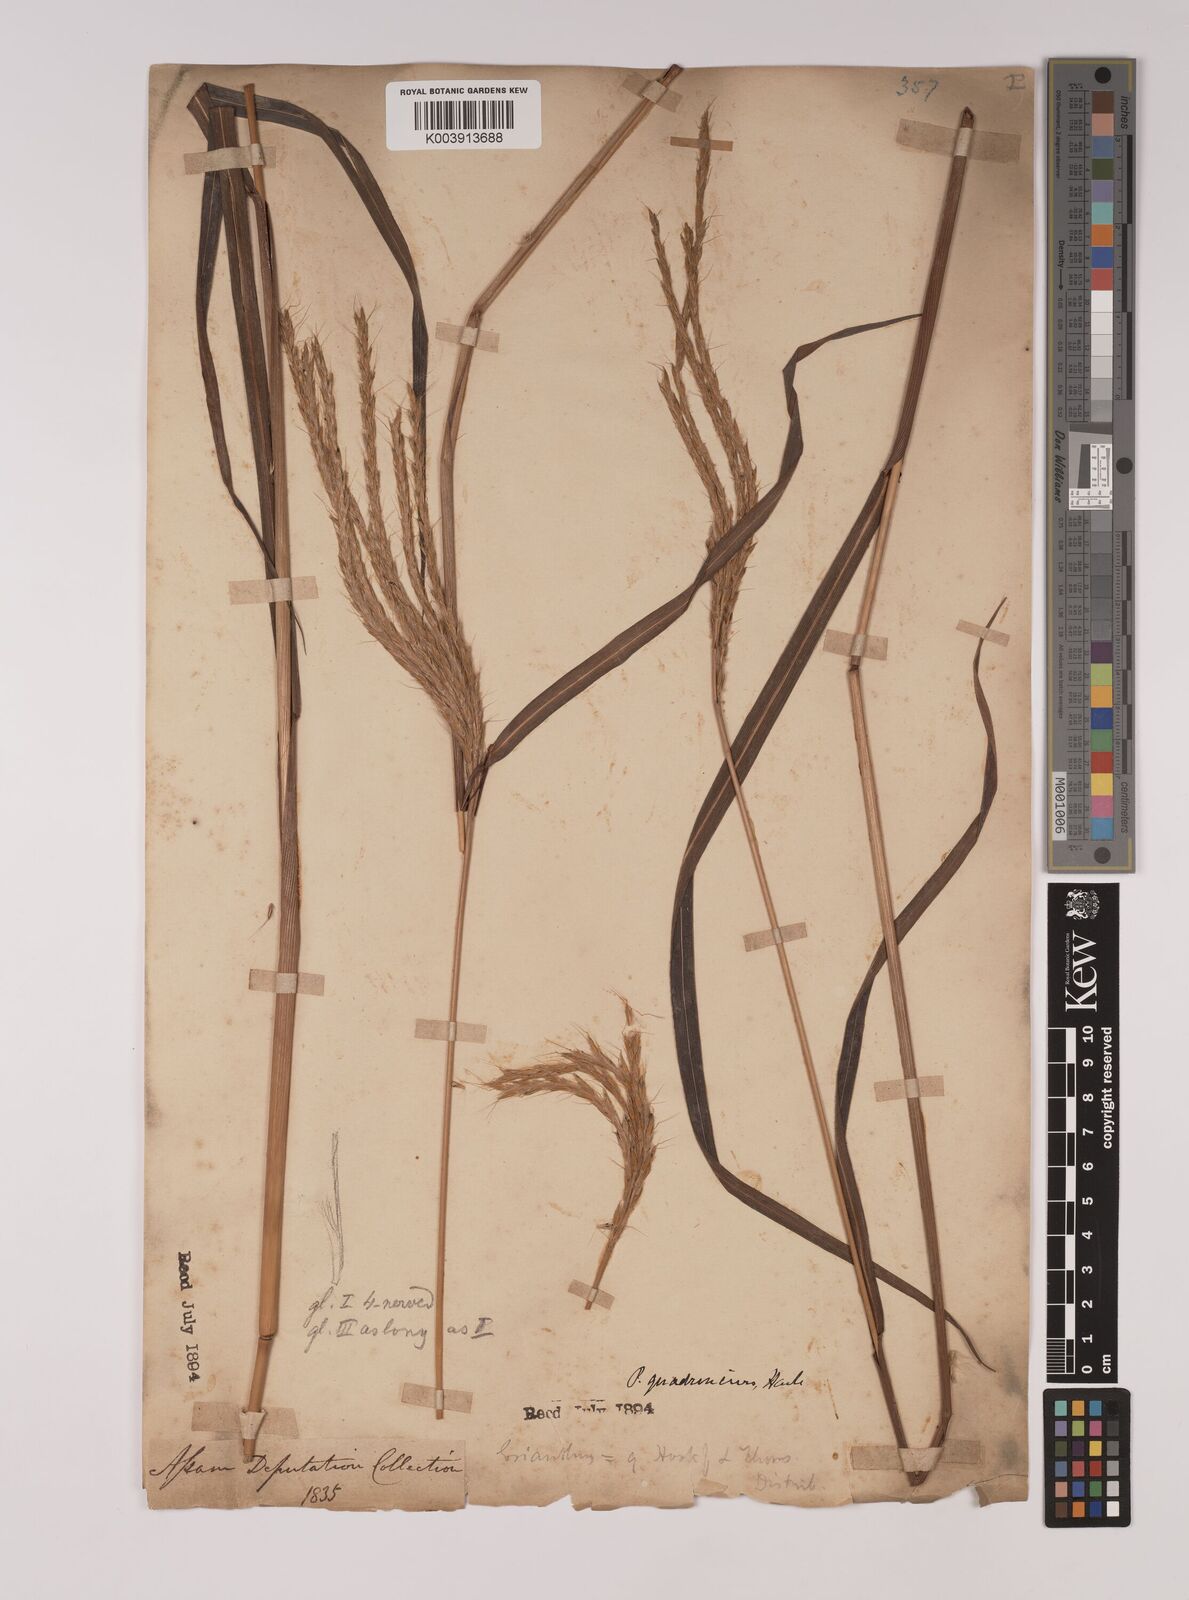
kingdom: Plantae
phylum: Tracheophyta
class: Liliopsida
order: Poales
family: Poaceae
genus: Pseudopogonatherum
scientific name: Pseudopogonatherum quadrinerve
